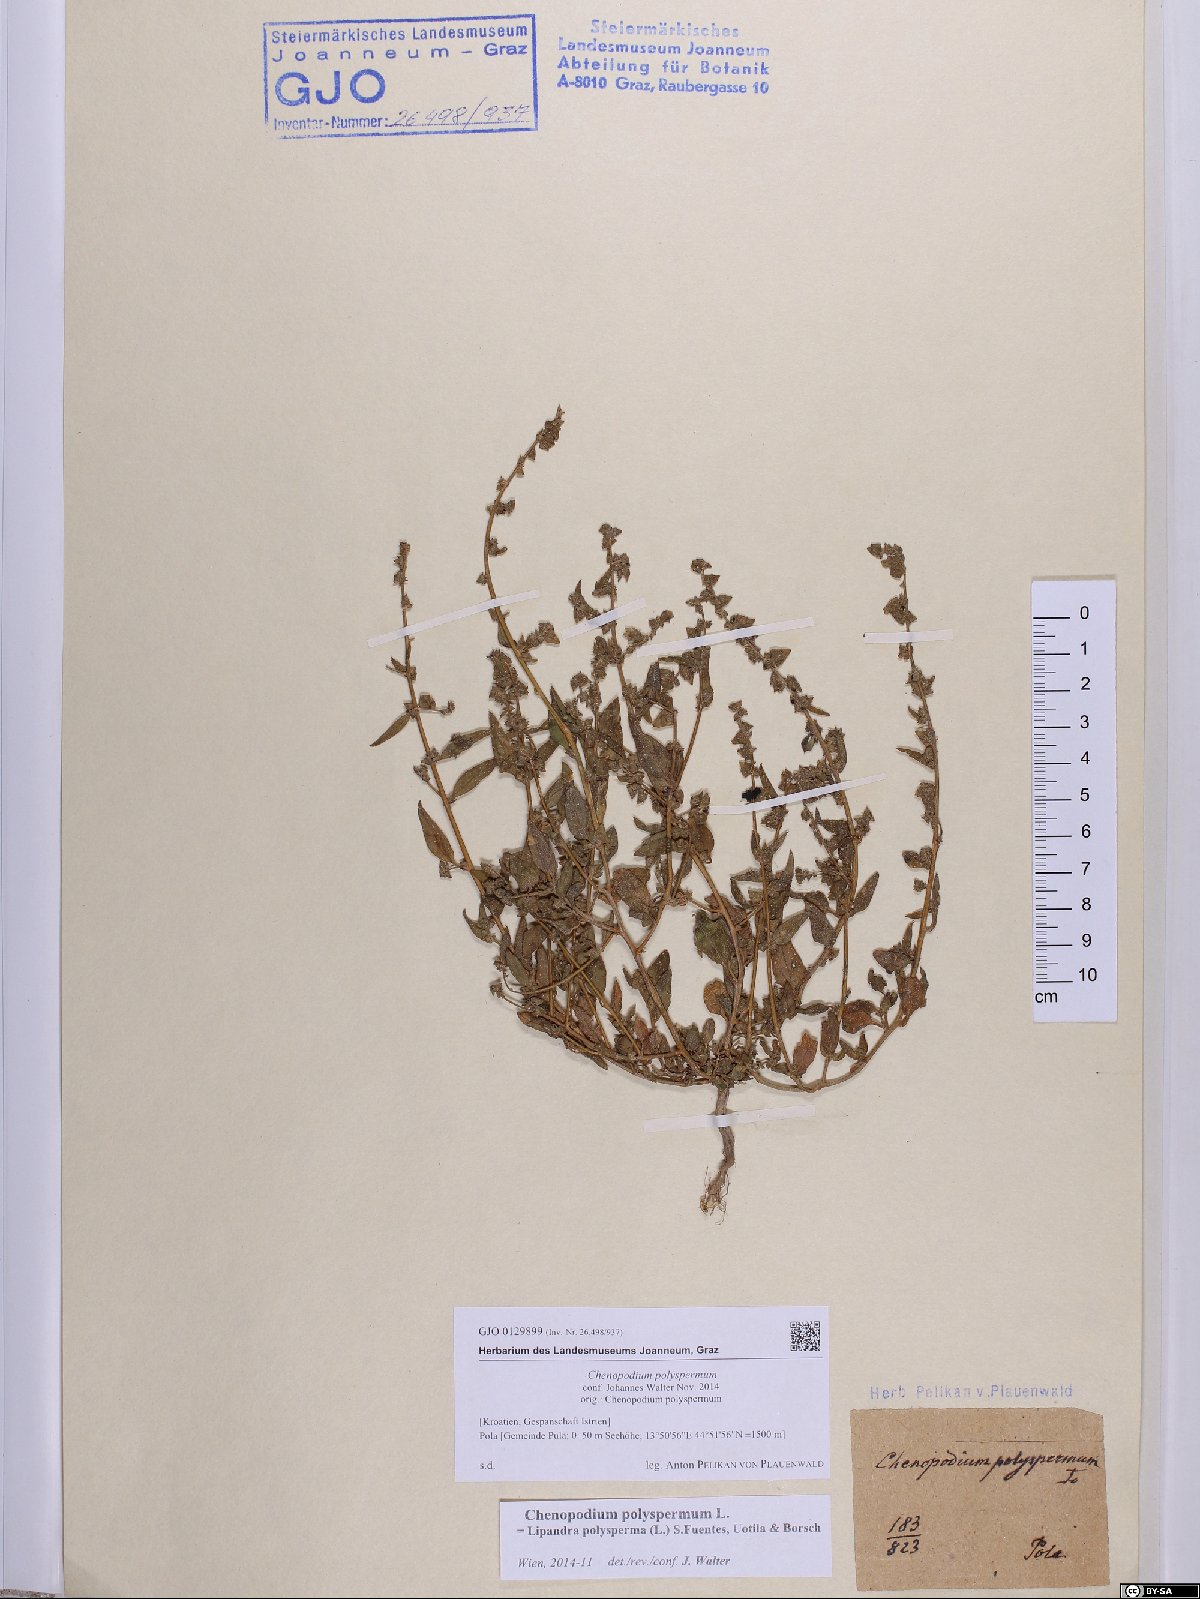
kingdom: Plantae
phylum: Tracheophyta
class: Magnoliopsida
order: Caryophyllales
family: Amaranthaceae
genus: Lipandra
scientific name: Lipandra polysperma
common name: Many-seed goosefoot
